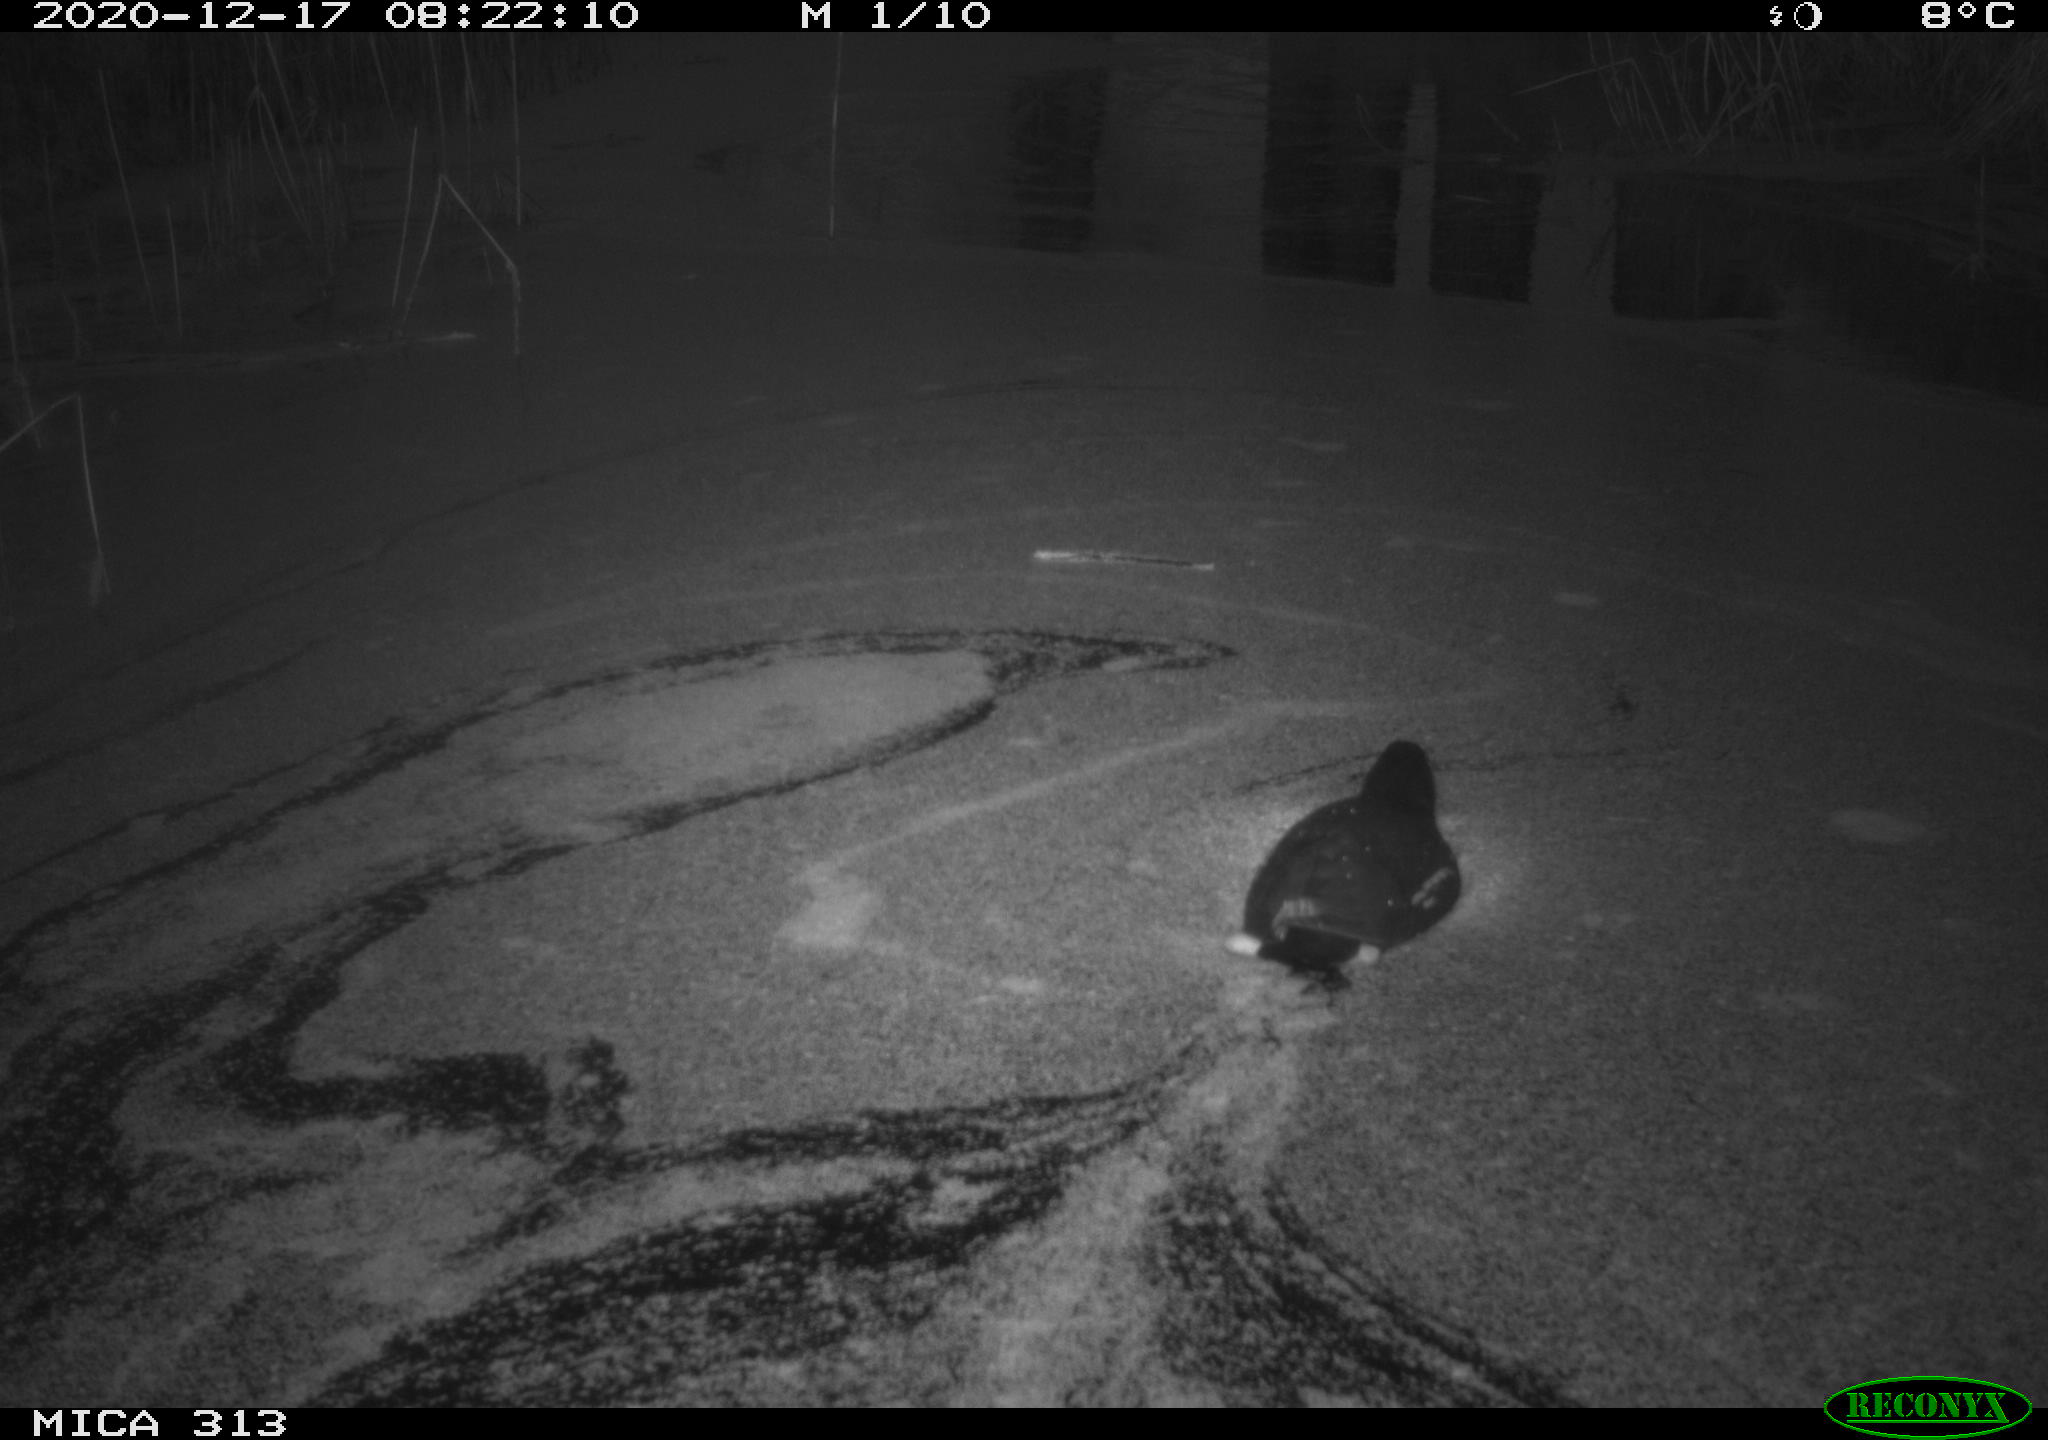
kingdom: Animalia
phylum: Chordata
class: Aves
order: Gruiformes
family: Rallidae
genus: Gallinula
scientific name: Gallinula chloropus
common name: Common moorhen
